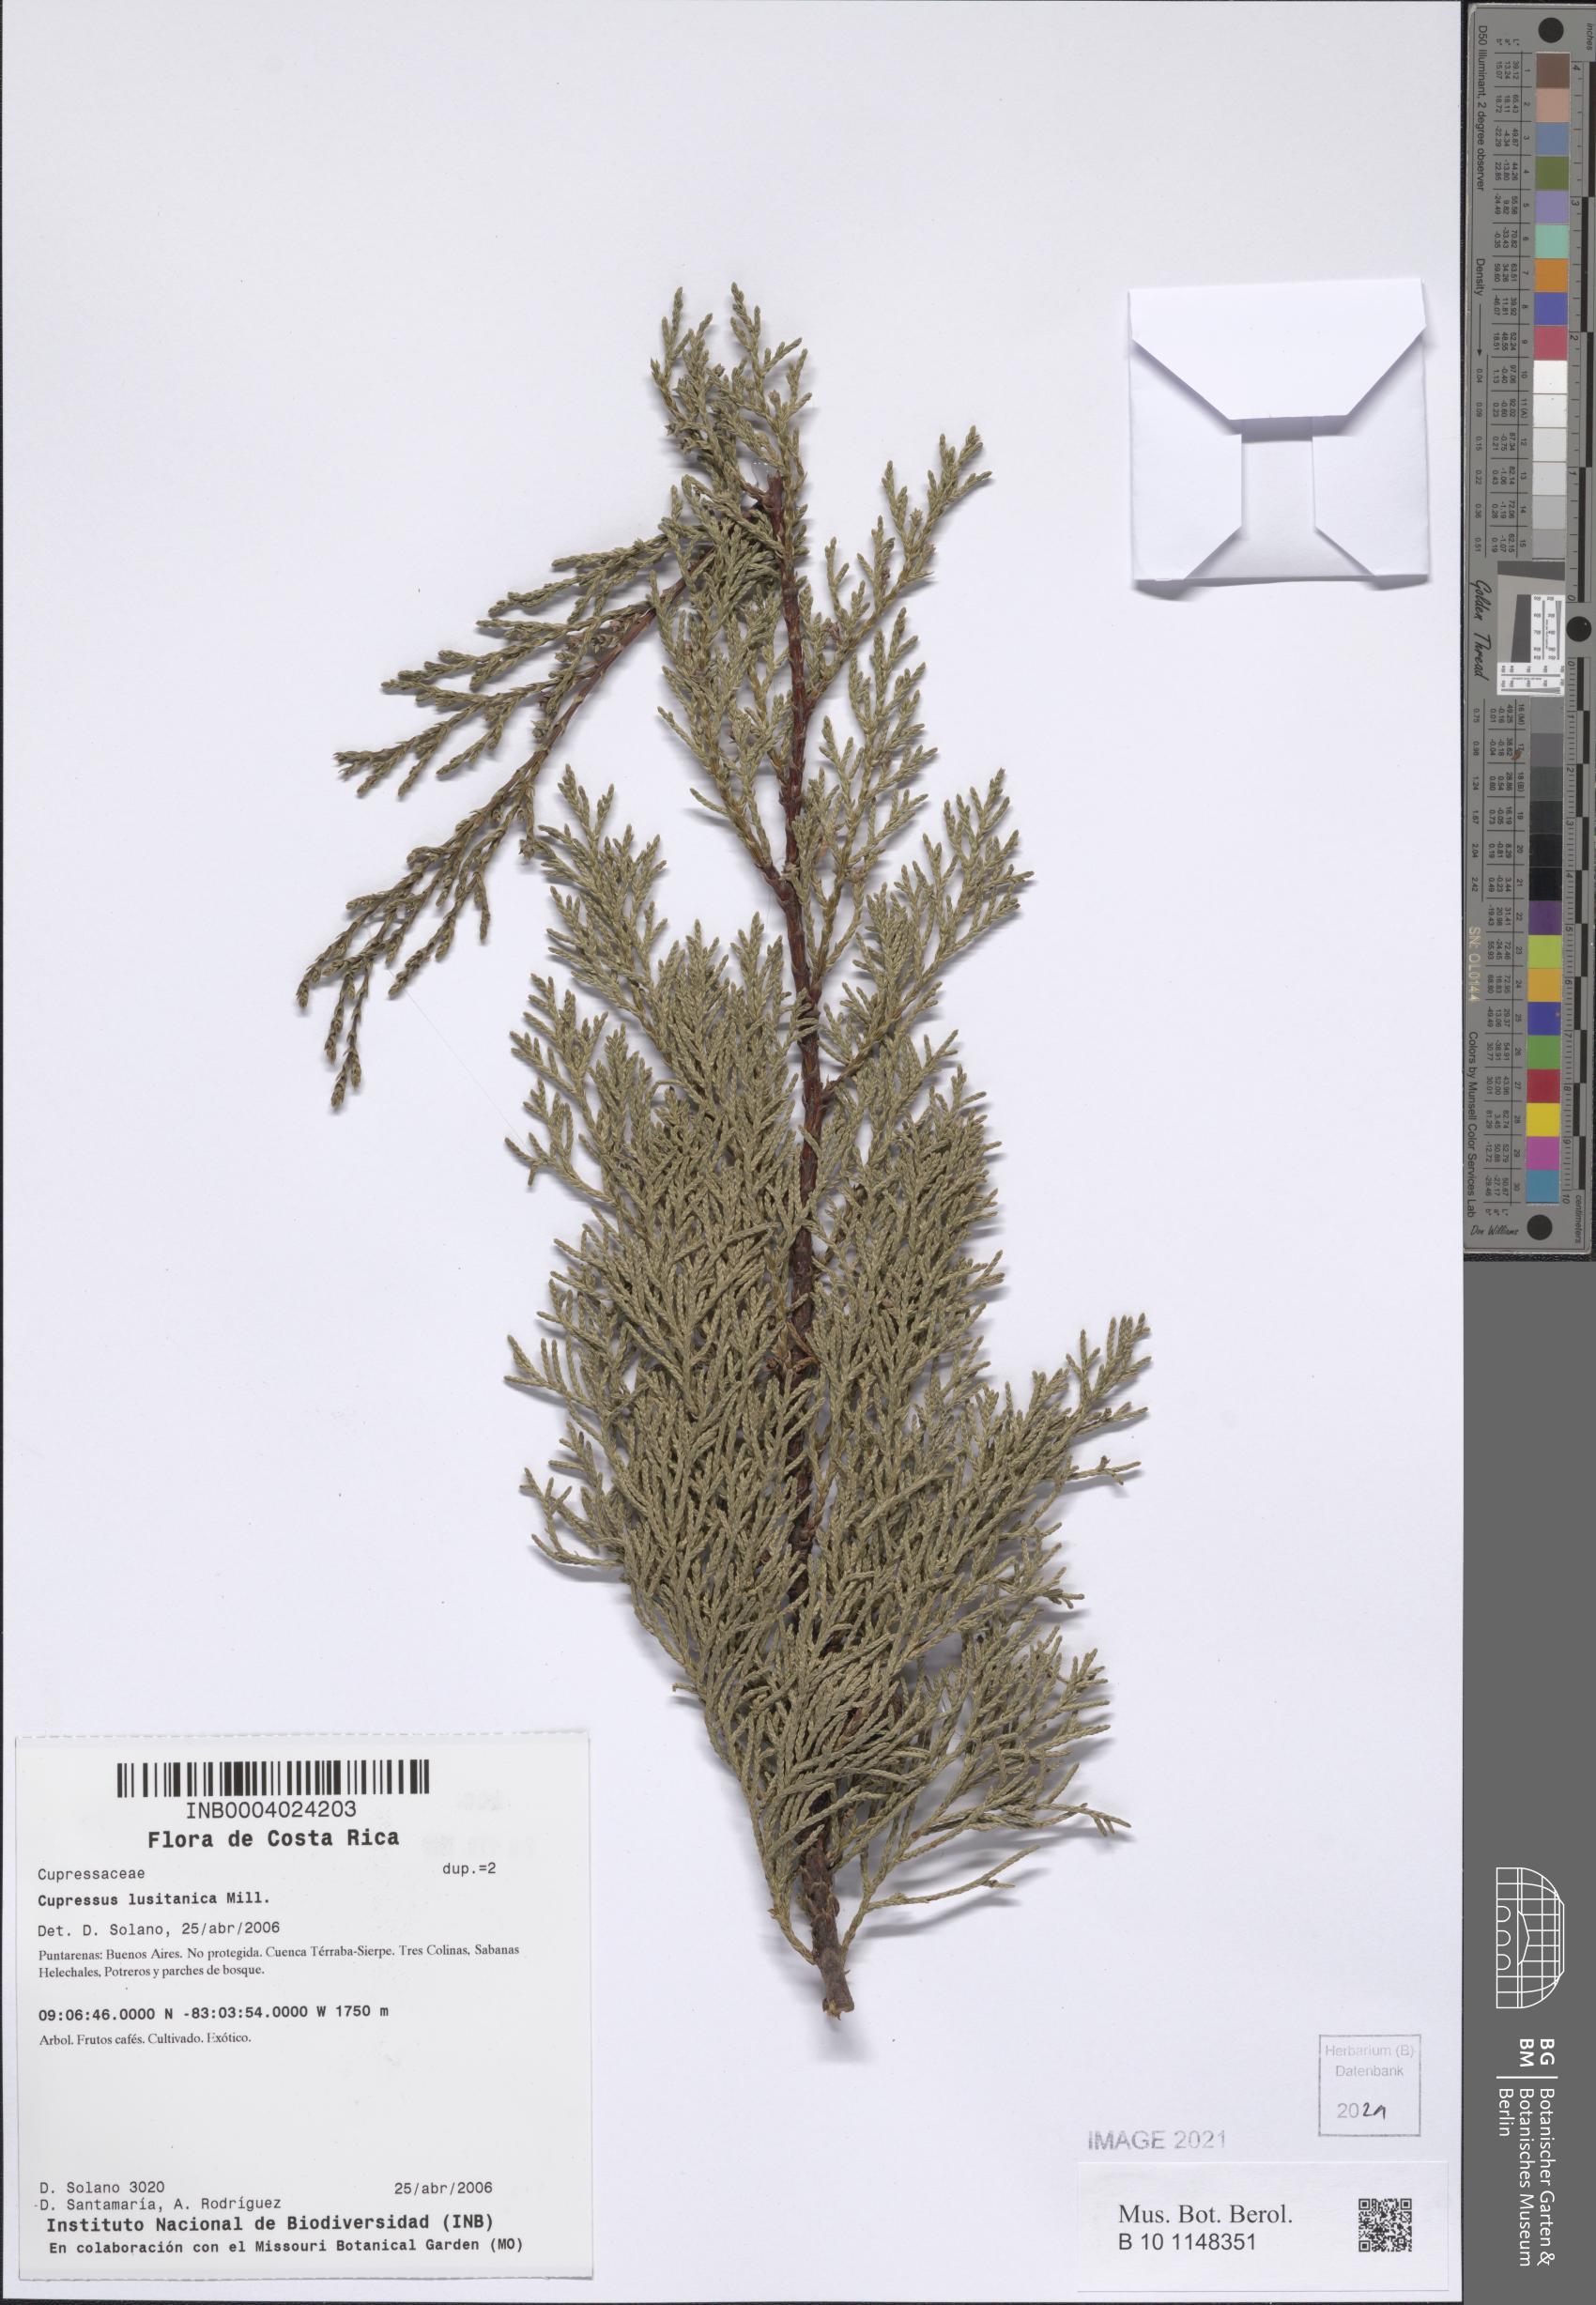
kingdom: Plantae
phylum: Tracheophyta
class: Pinopsida
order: Pinales
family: Cupressaceae
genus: Cupressus
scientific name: Cupressus lusitanica
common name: Mexican cypress
